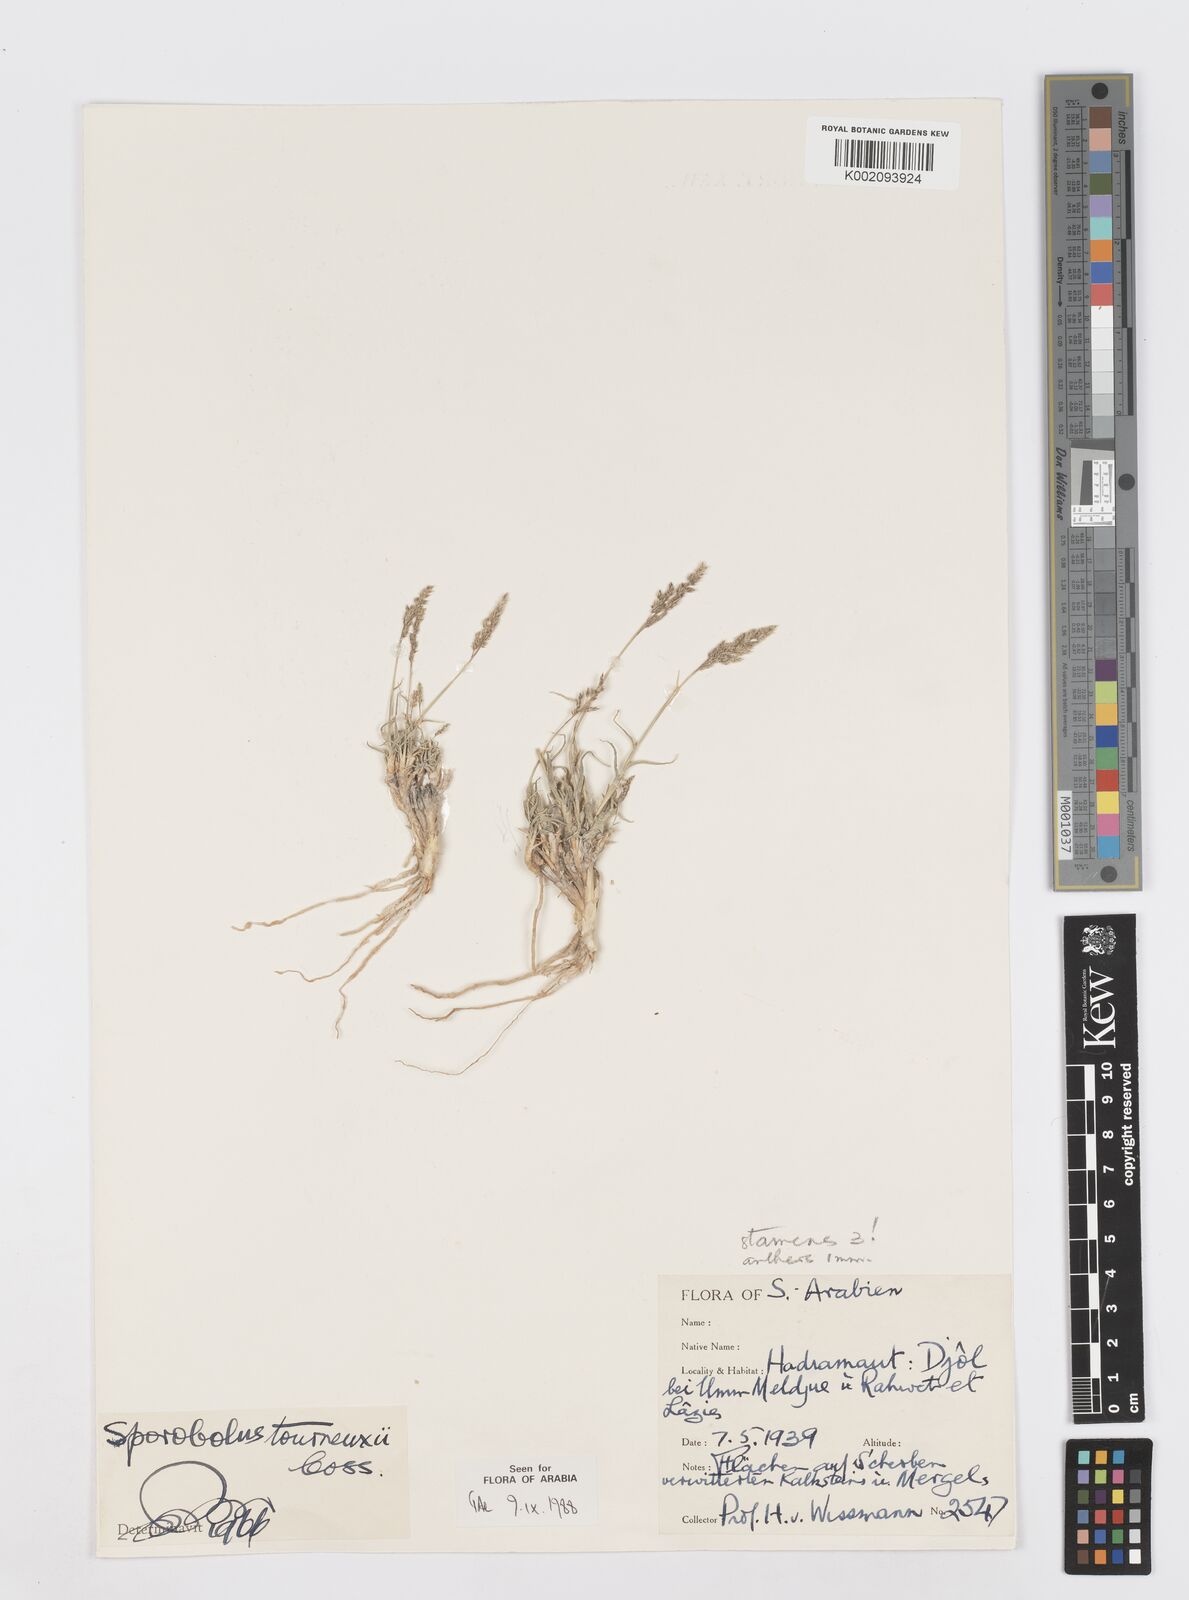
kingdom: Plantae
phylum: Tracheophyta
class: Liliopsida
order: Poales
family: Poaceae
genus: Sporobolus
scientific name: Sporobolus tourneuxii
